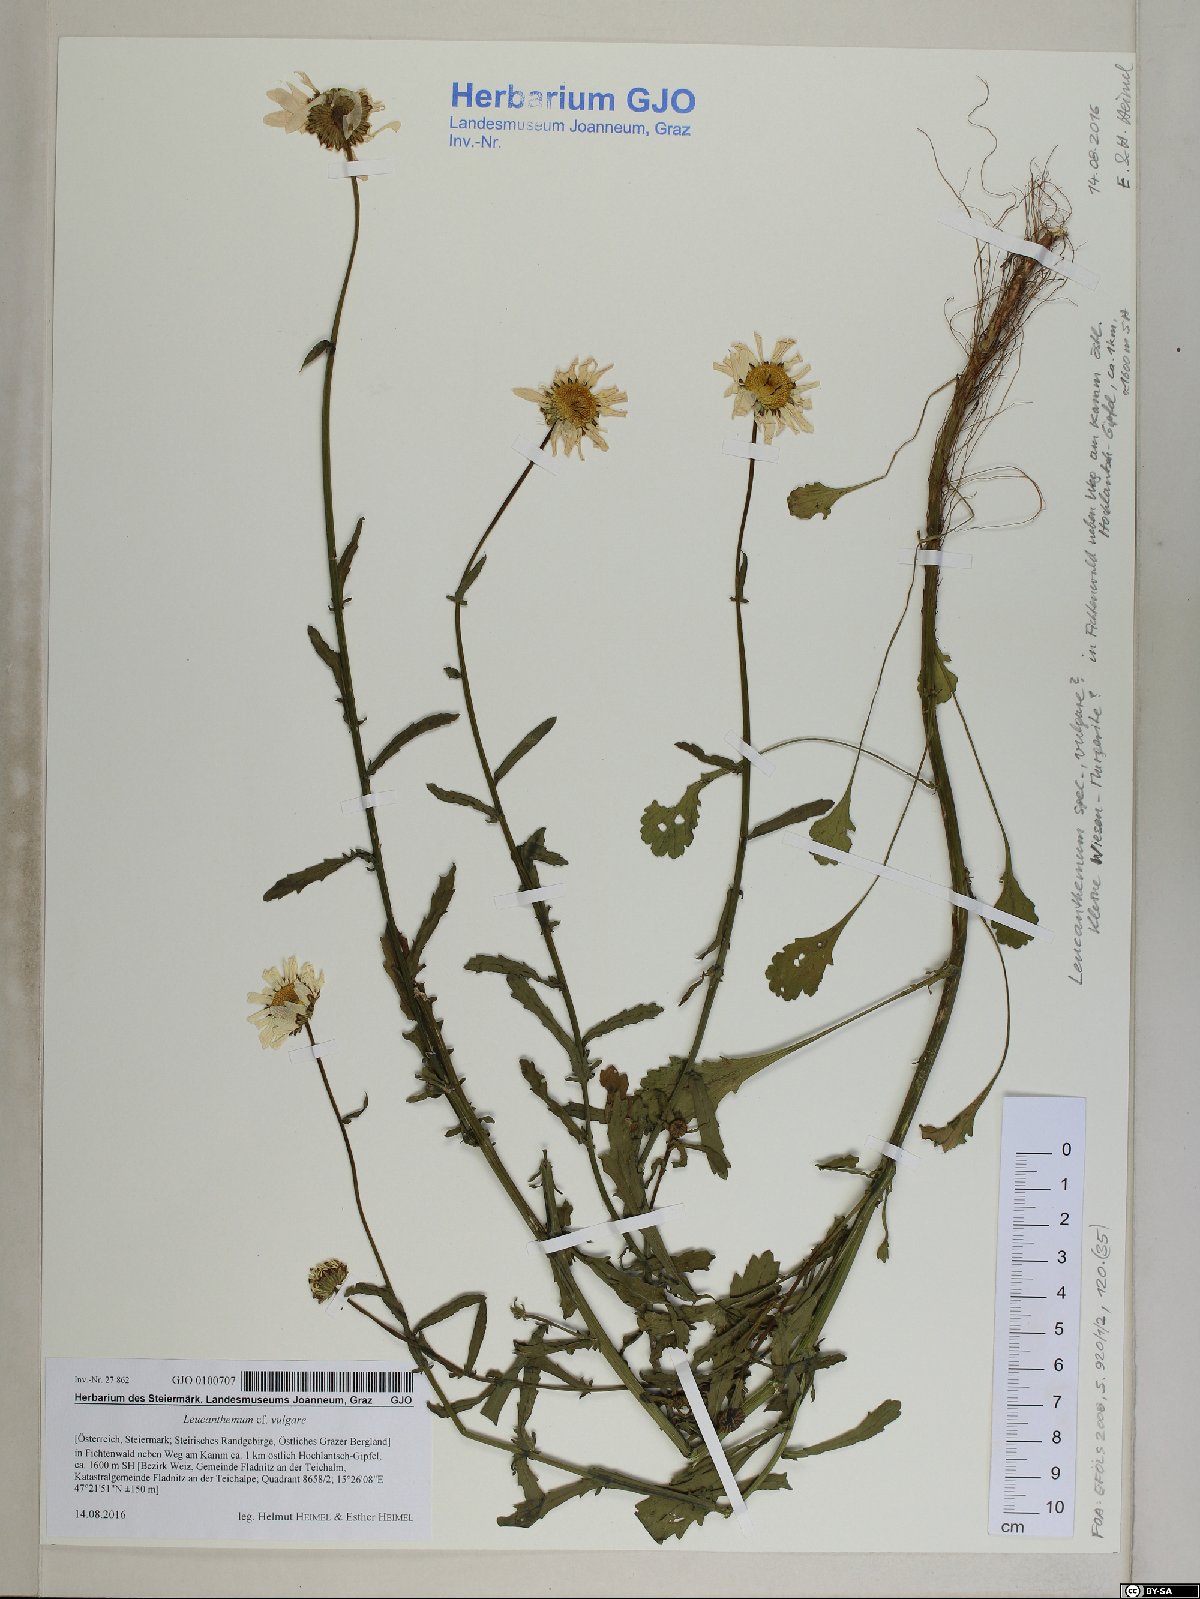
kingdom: Plantae
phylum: Tracheophyta
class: Magnoliopsida
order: Asterales
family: Asteraceae
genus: Leucanthemum
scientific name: Leucanthemum vulgare
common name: Oxeye daisy
